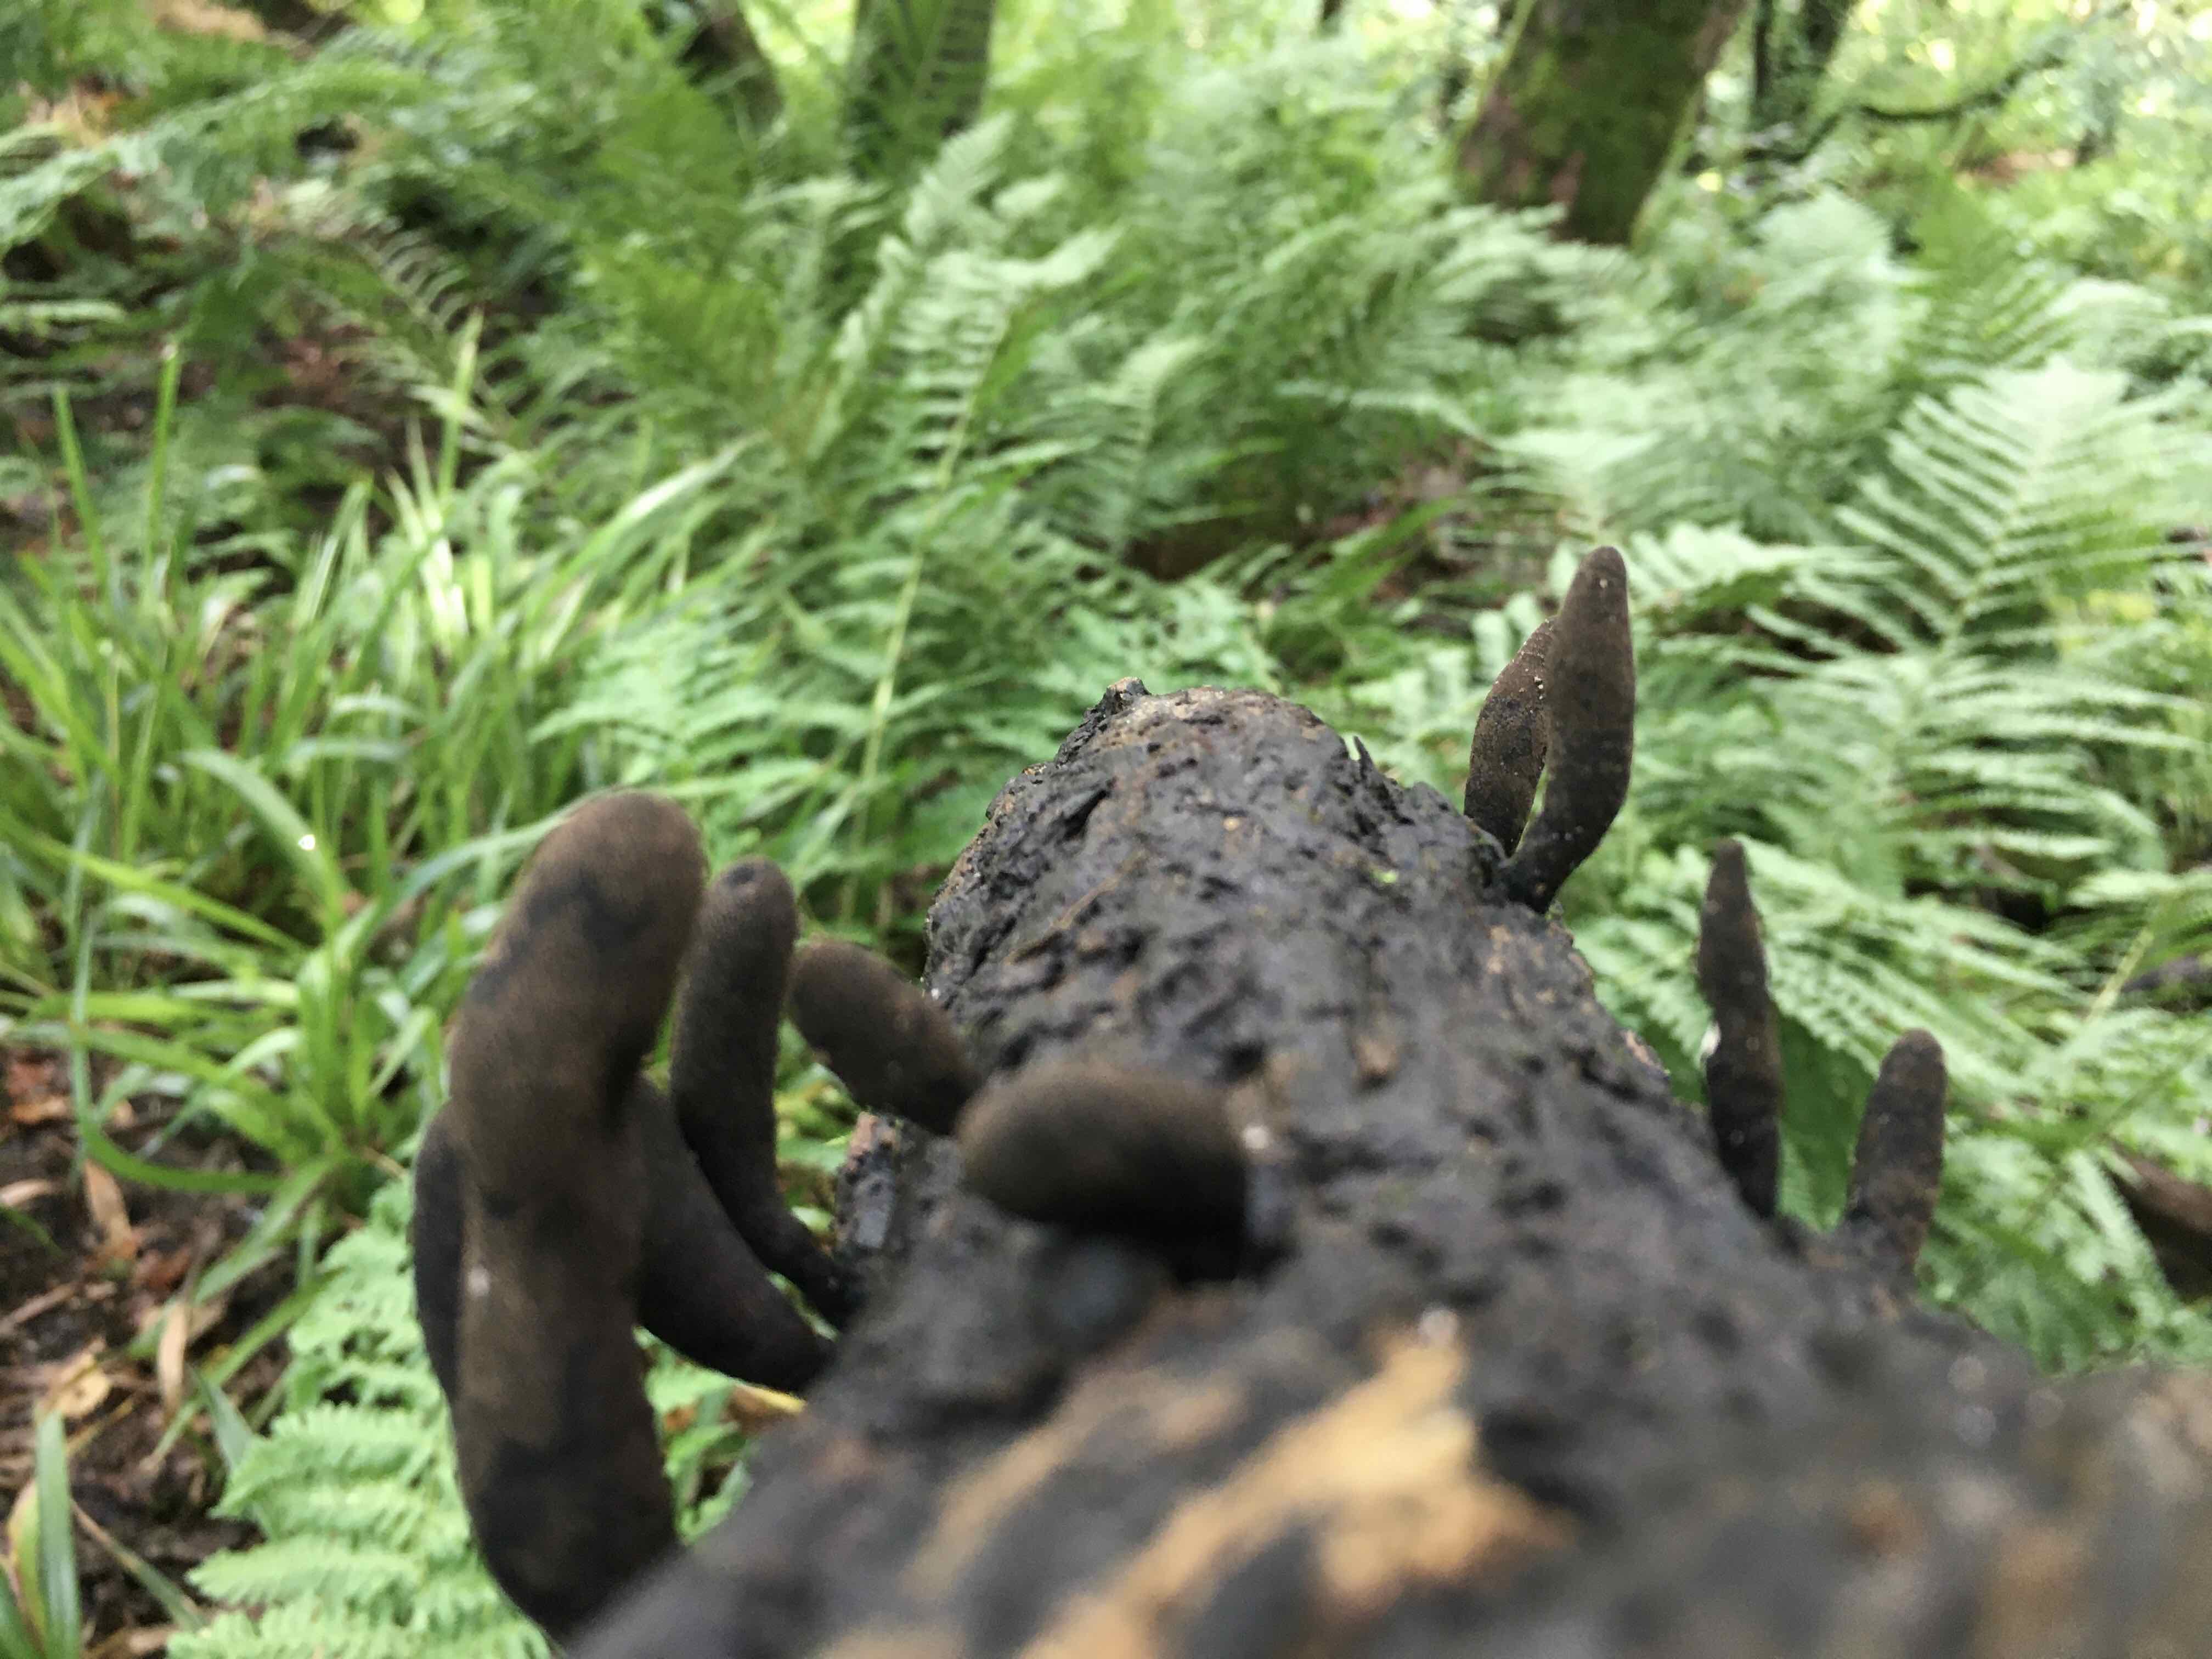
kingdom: Fungi
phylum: Ascomycota
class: Sordariomycetes
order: Xylariales
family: Xylariaceae
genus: Xylaria
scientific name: Xylaria
